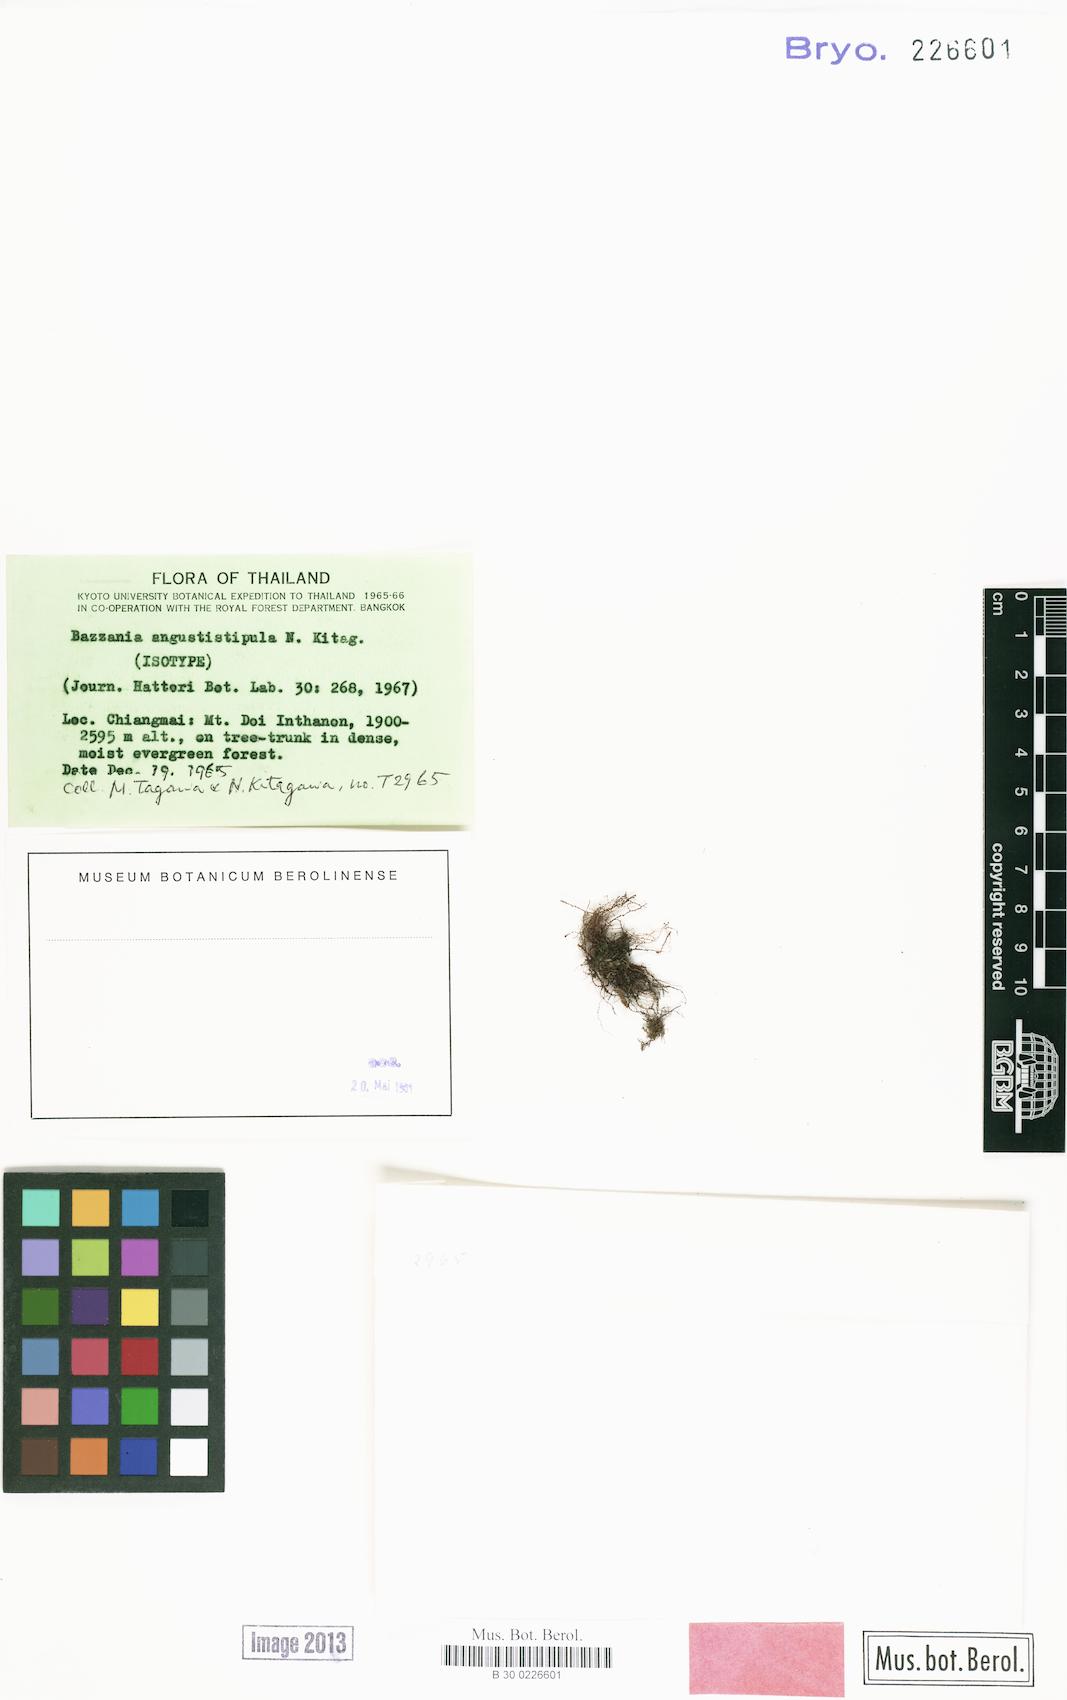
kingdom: Plantae
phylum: Marchantiophyta
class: Jungermanniopsida
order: Jungermanniales
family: Lepidoziaceae
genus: Bazzania
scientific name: Bazzania angustistipula
